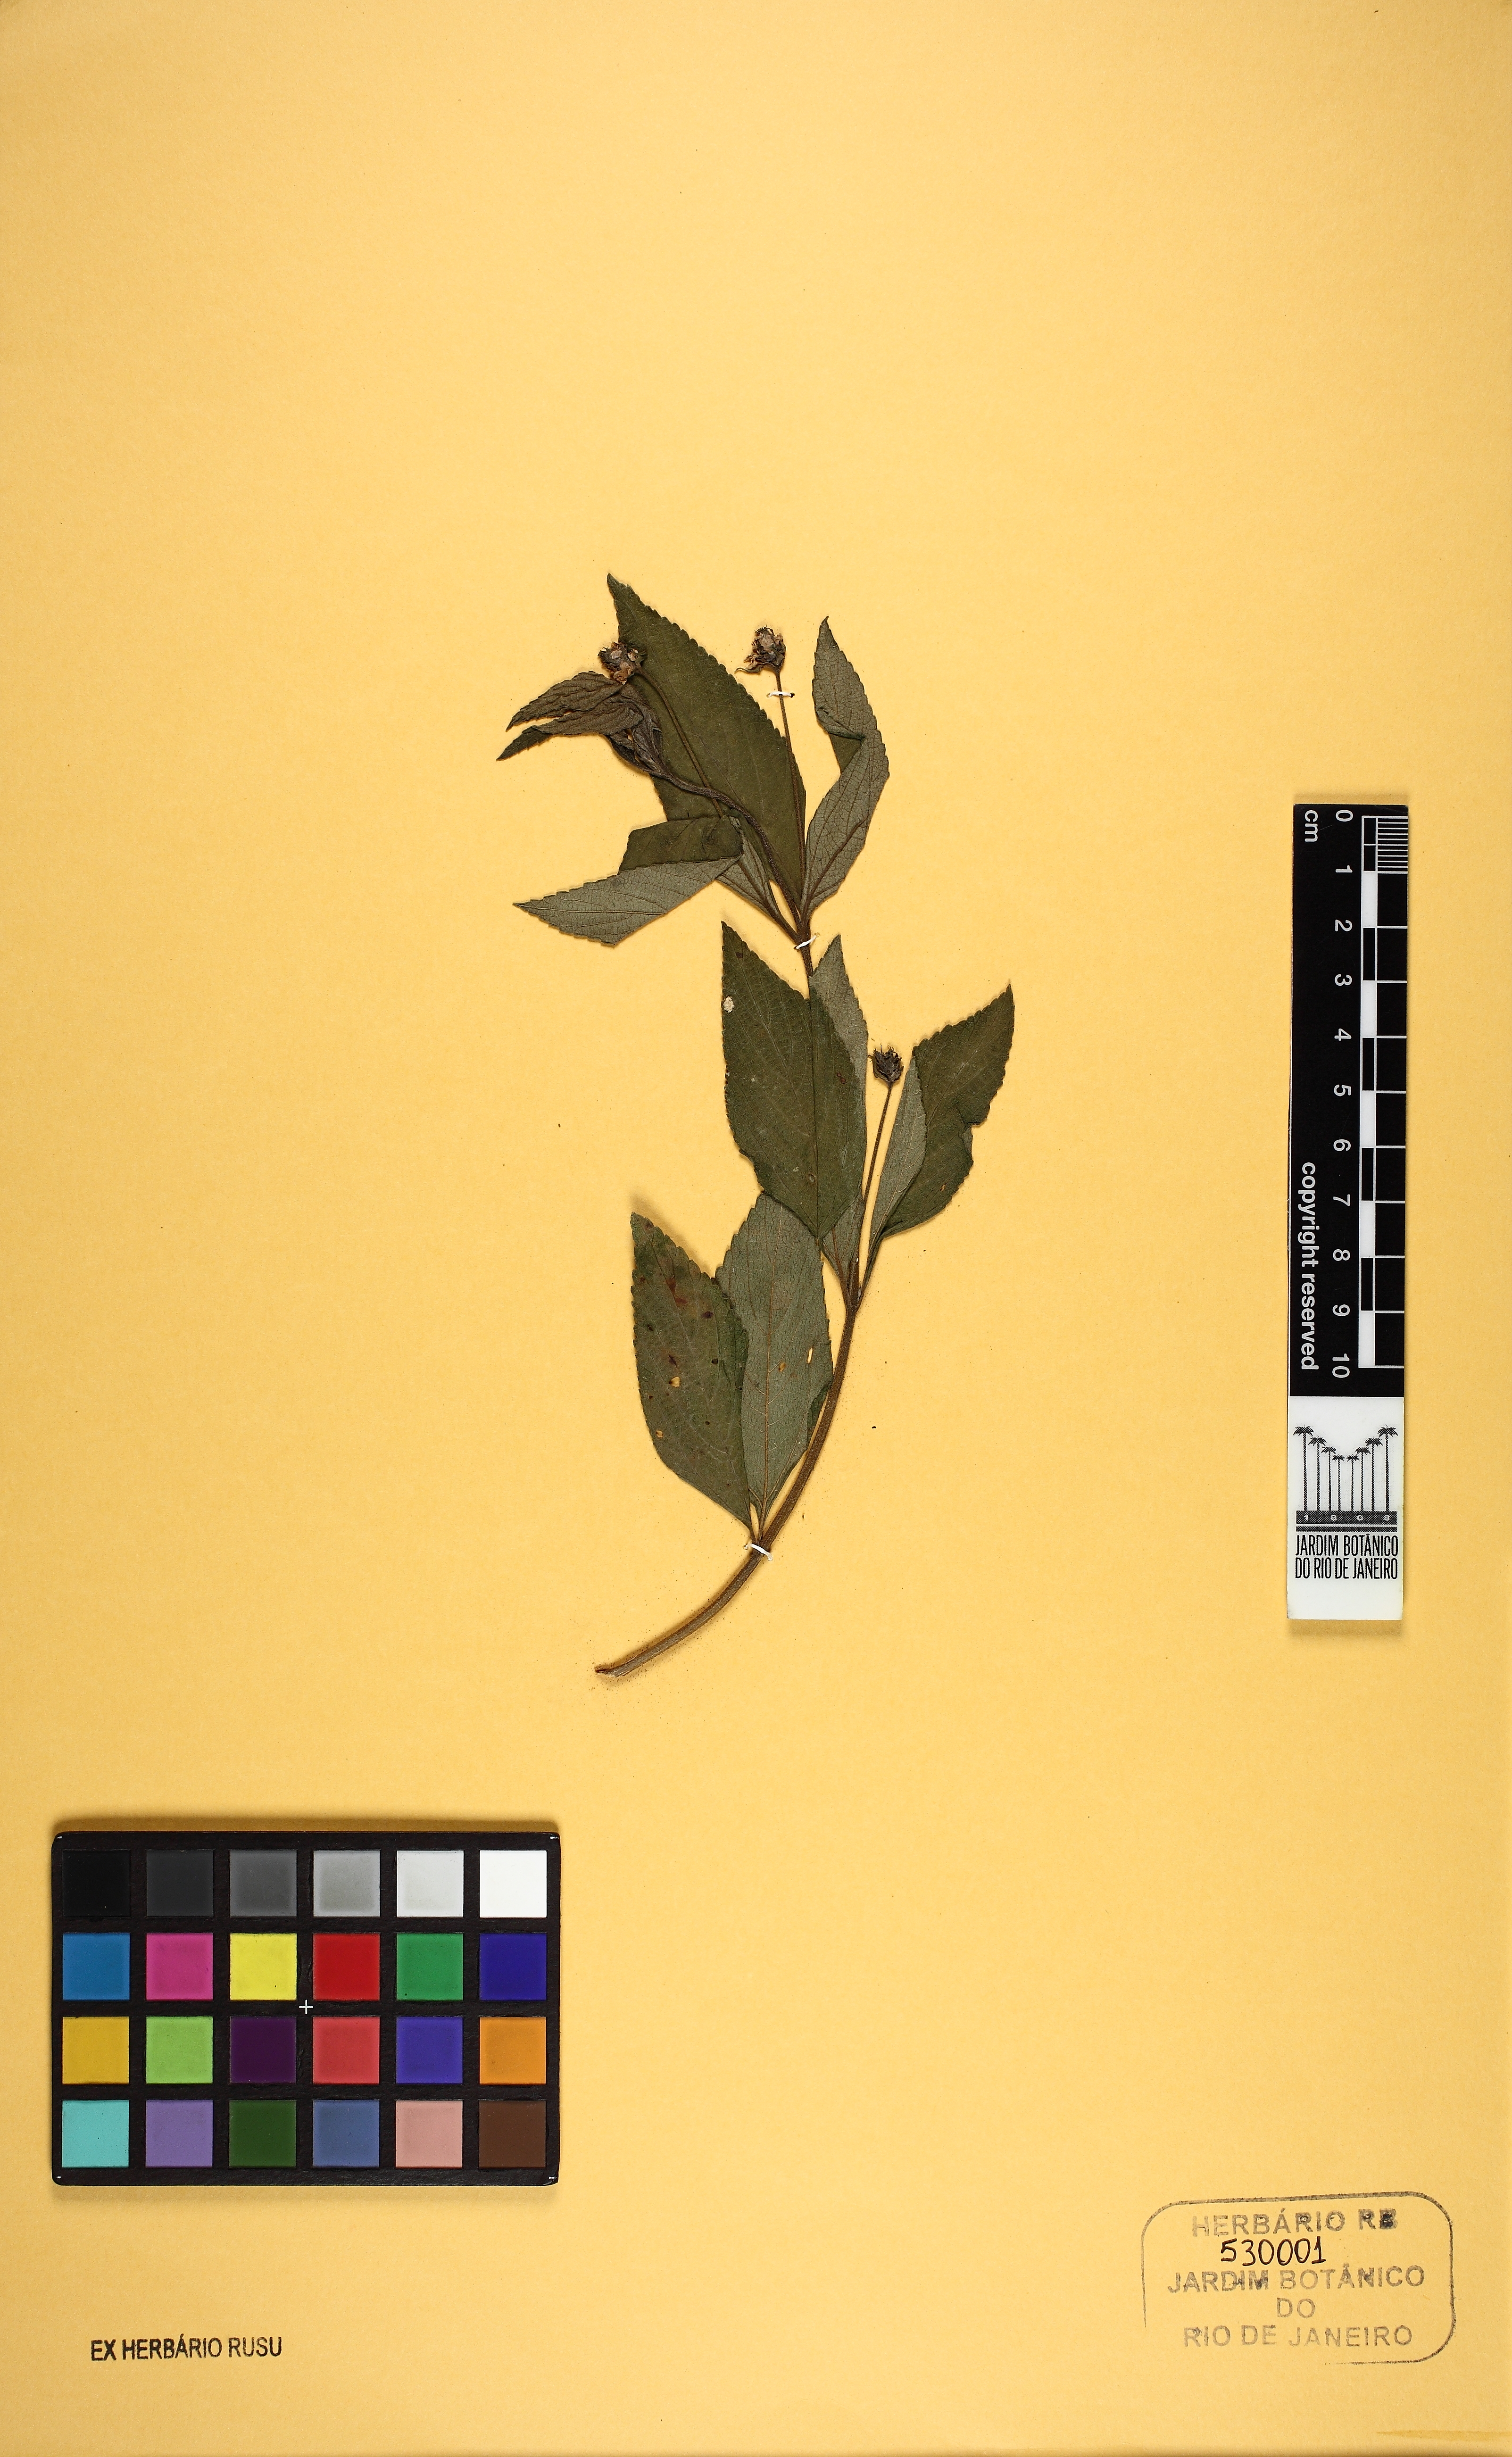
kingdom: Plantae
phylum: Tracheophyta
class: Magnoliopsida
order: Lamiales
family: Verbenaceae
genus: Lantana
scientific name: Lantana fucata
